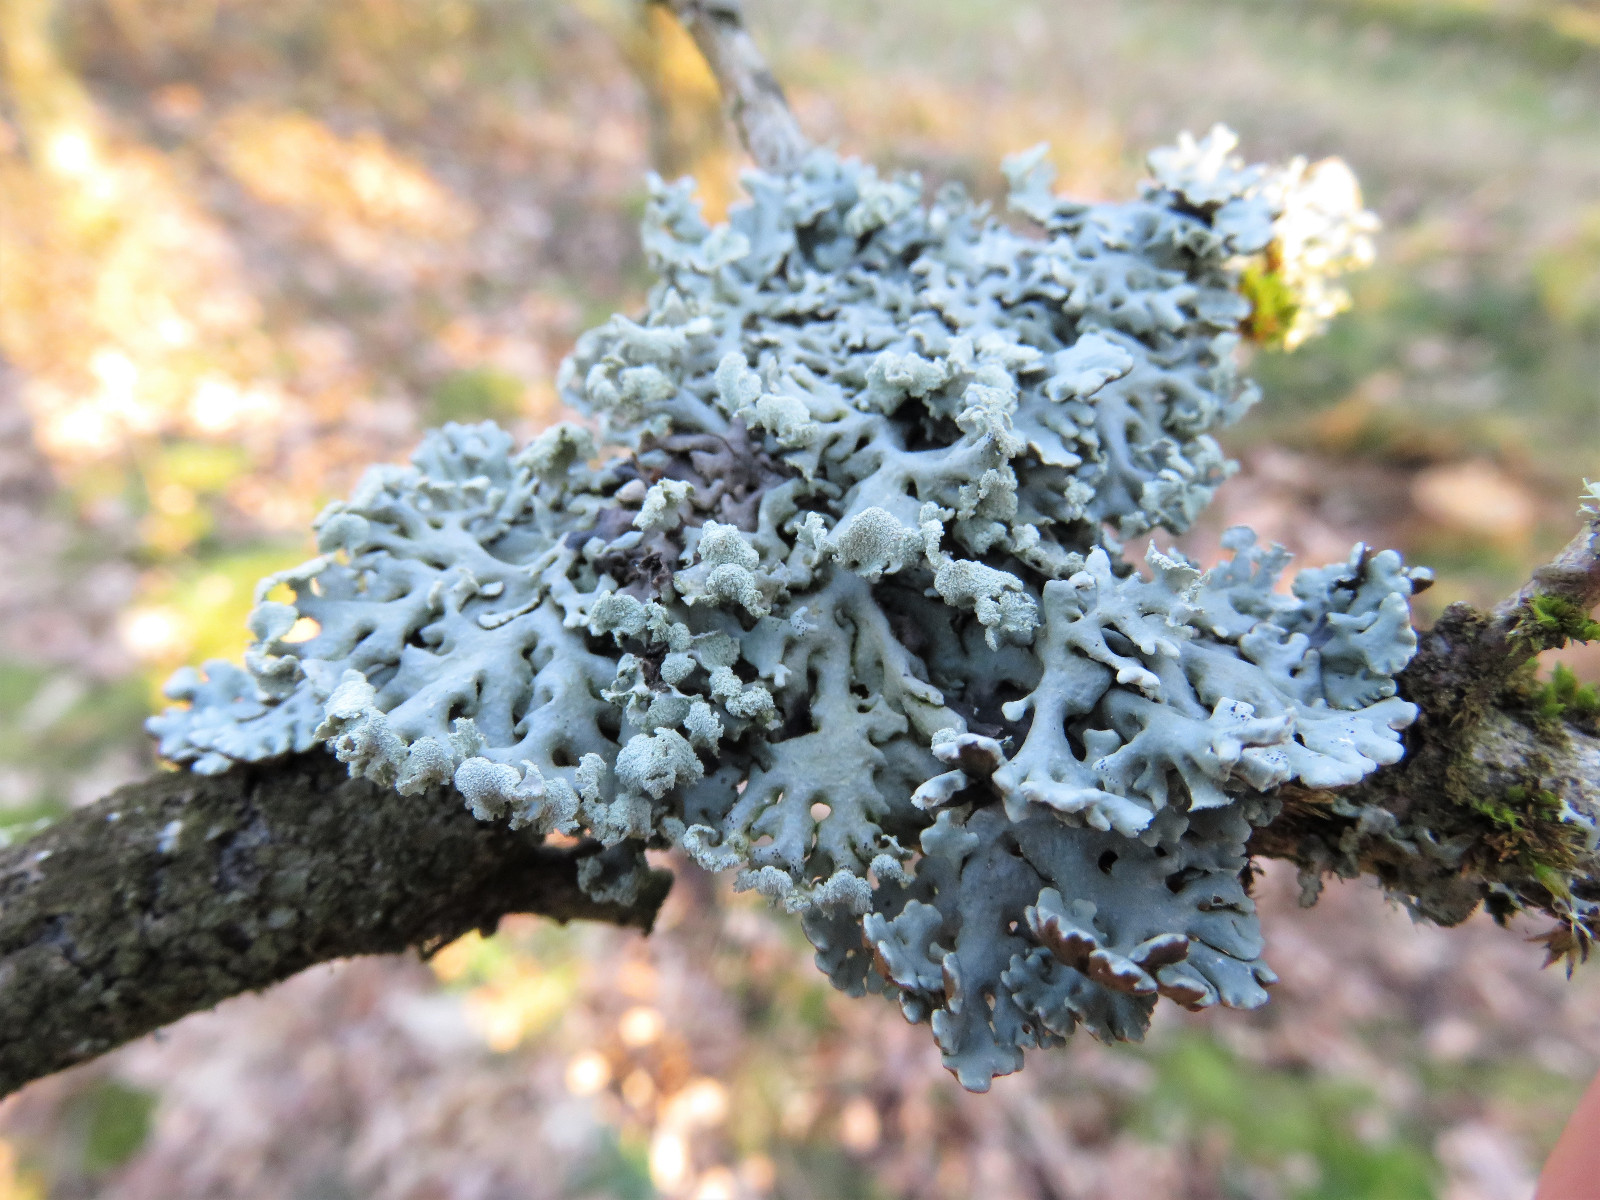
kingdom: Fungi
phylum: Ascomycota
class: Lecanoromycetes
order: Lecanorales
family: Parmeliaceae
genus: Hypogymnia
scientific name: Hypogymnia physodes
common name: almindelig kvistlav
